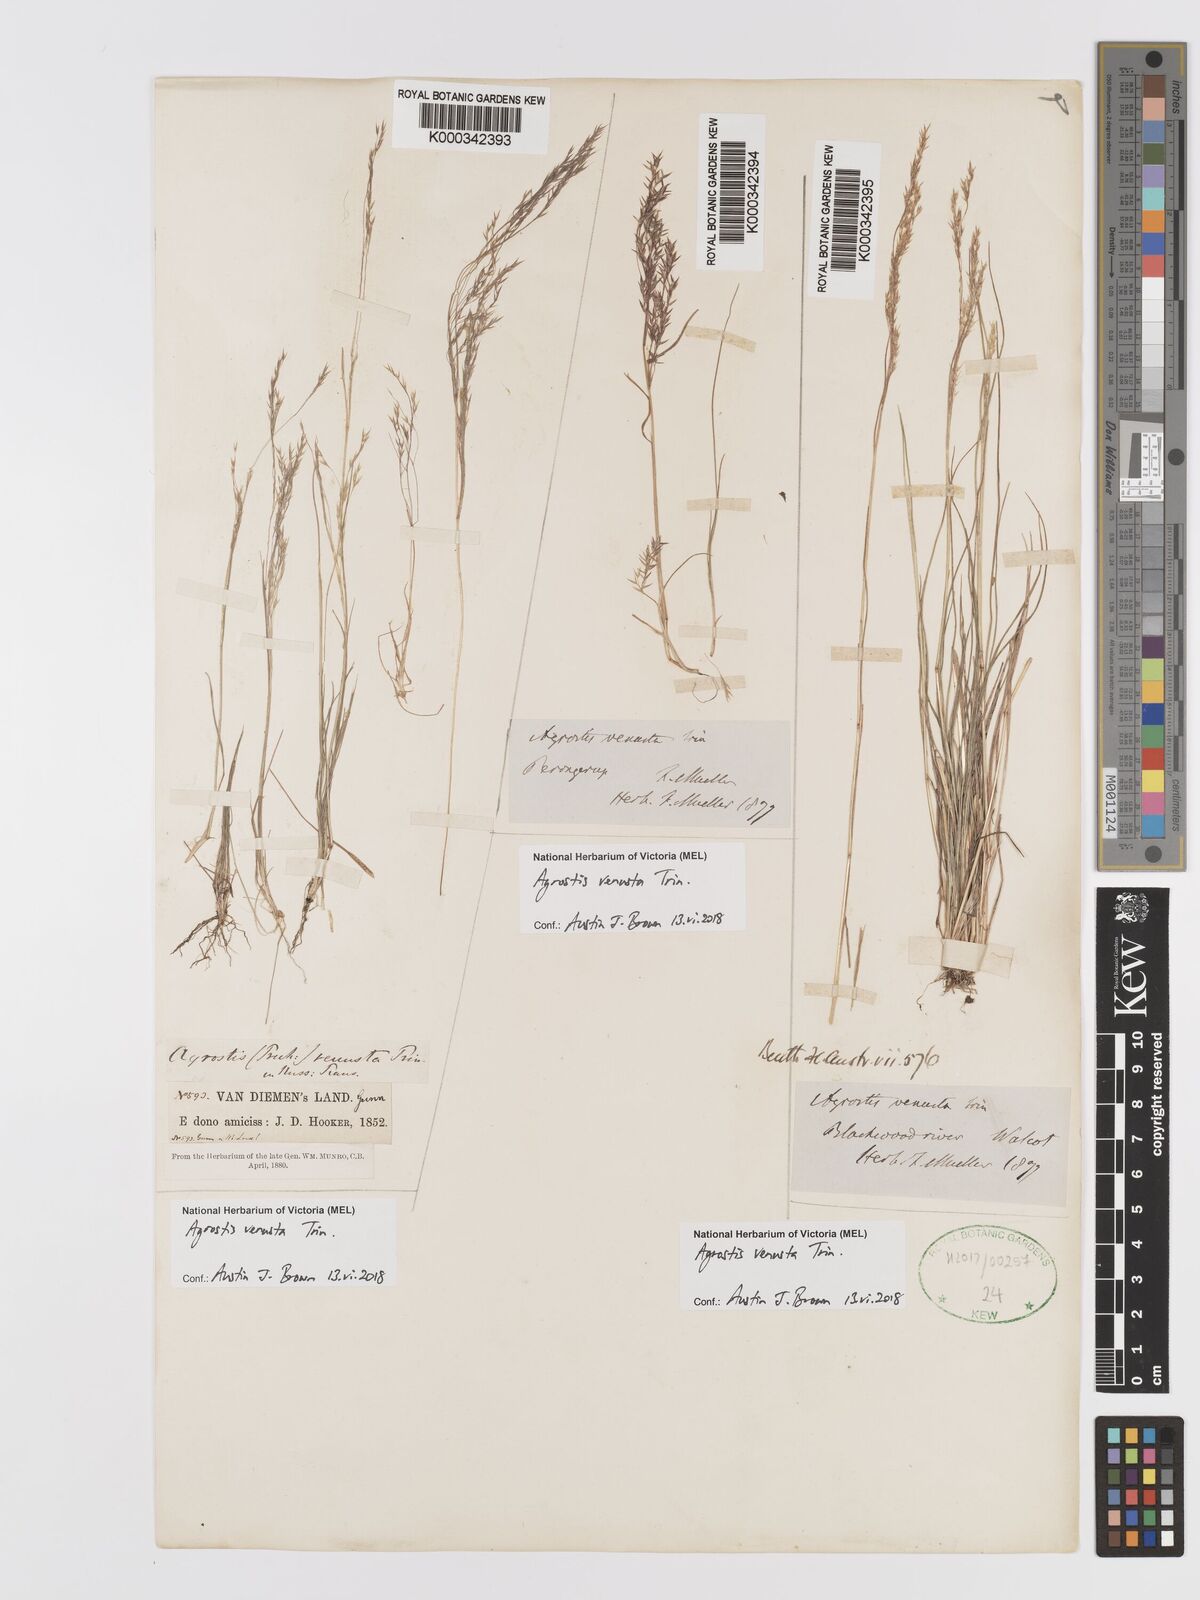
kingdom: Plantae
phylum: Tracheophyta
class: Liliopsida
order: Poales
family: Poaceae
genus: Agrostis
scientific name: Agrostis venusta
